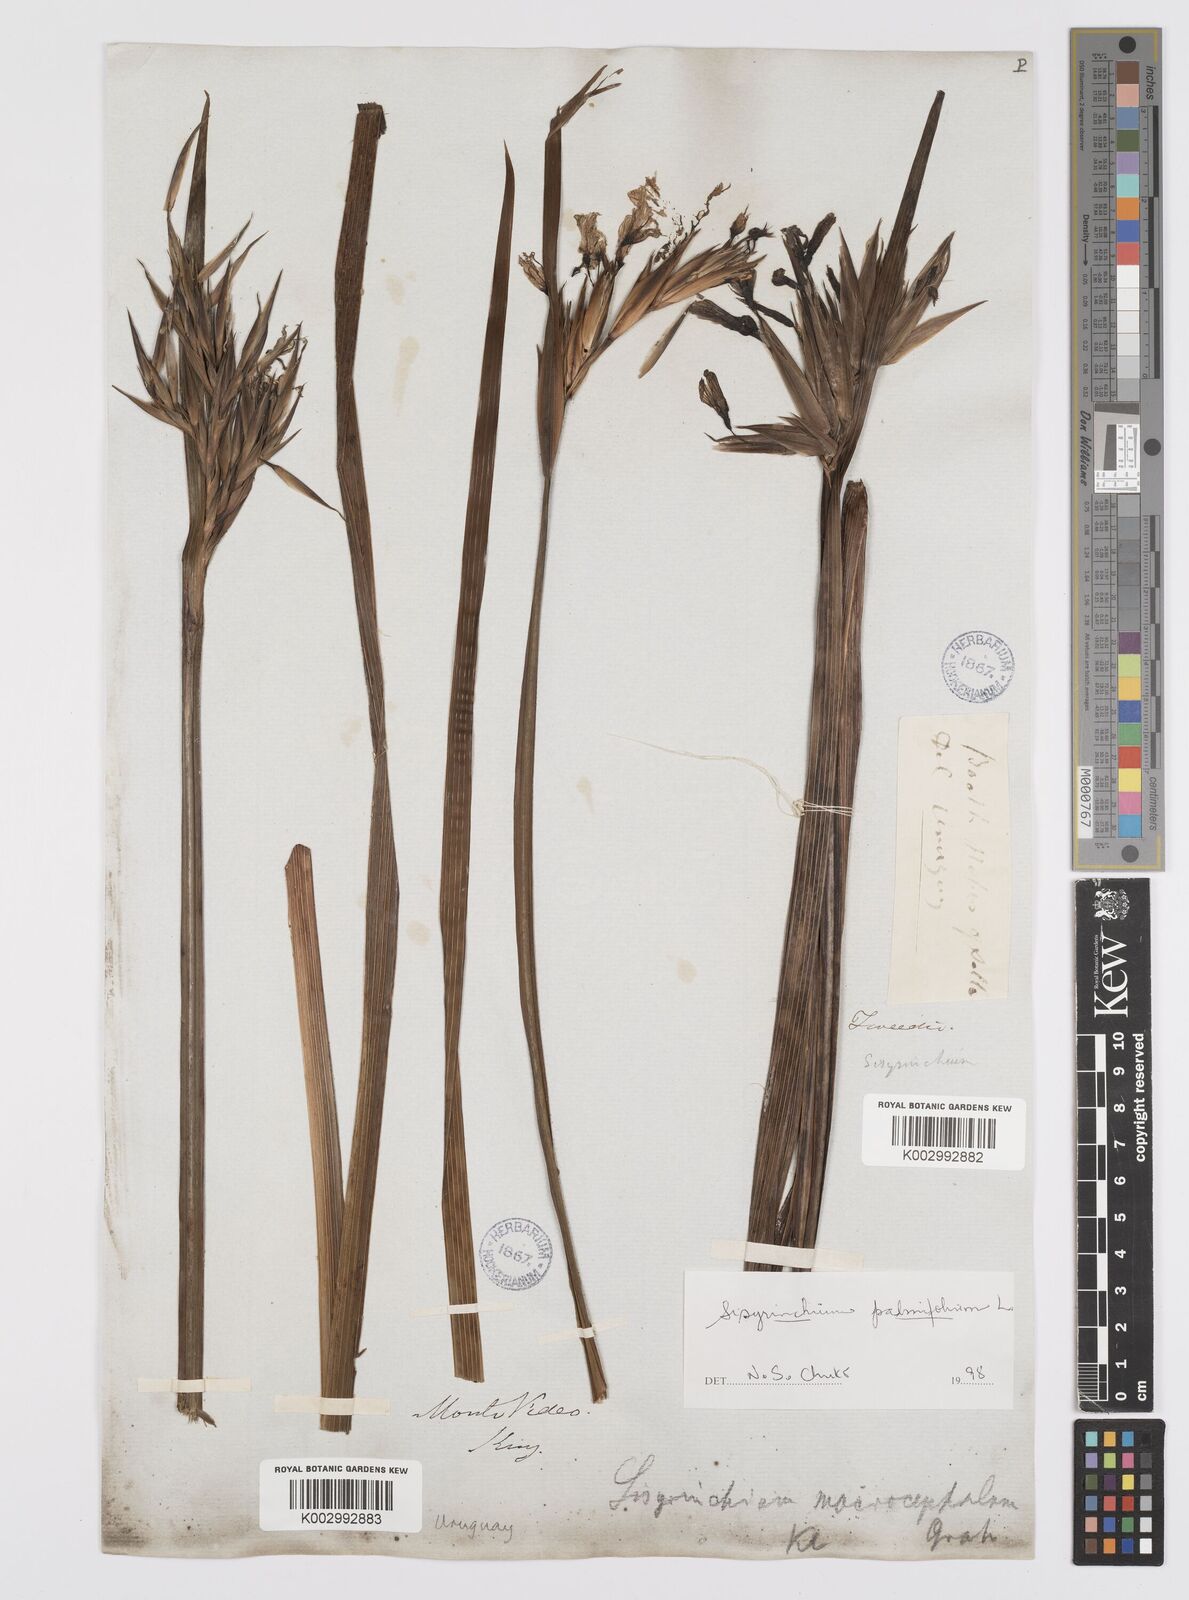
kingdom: Plantae
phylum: Tracheophyta
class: Liliopsida
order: Asparagales
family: Iridaceae
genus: Sisyrinchium
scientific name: Sisyrinchium palmifolium
